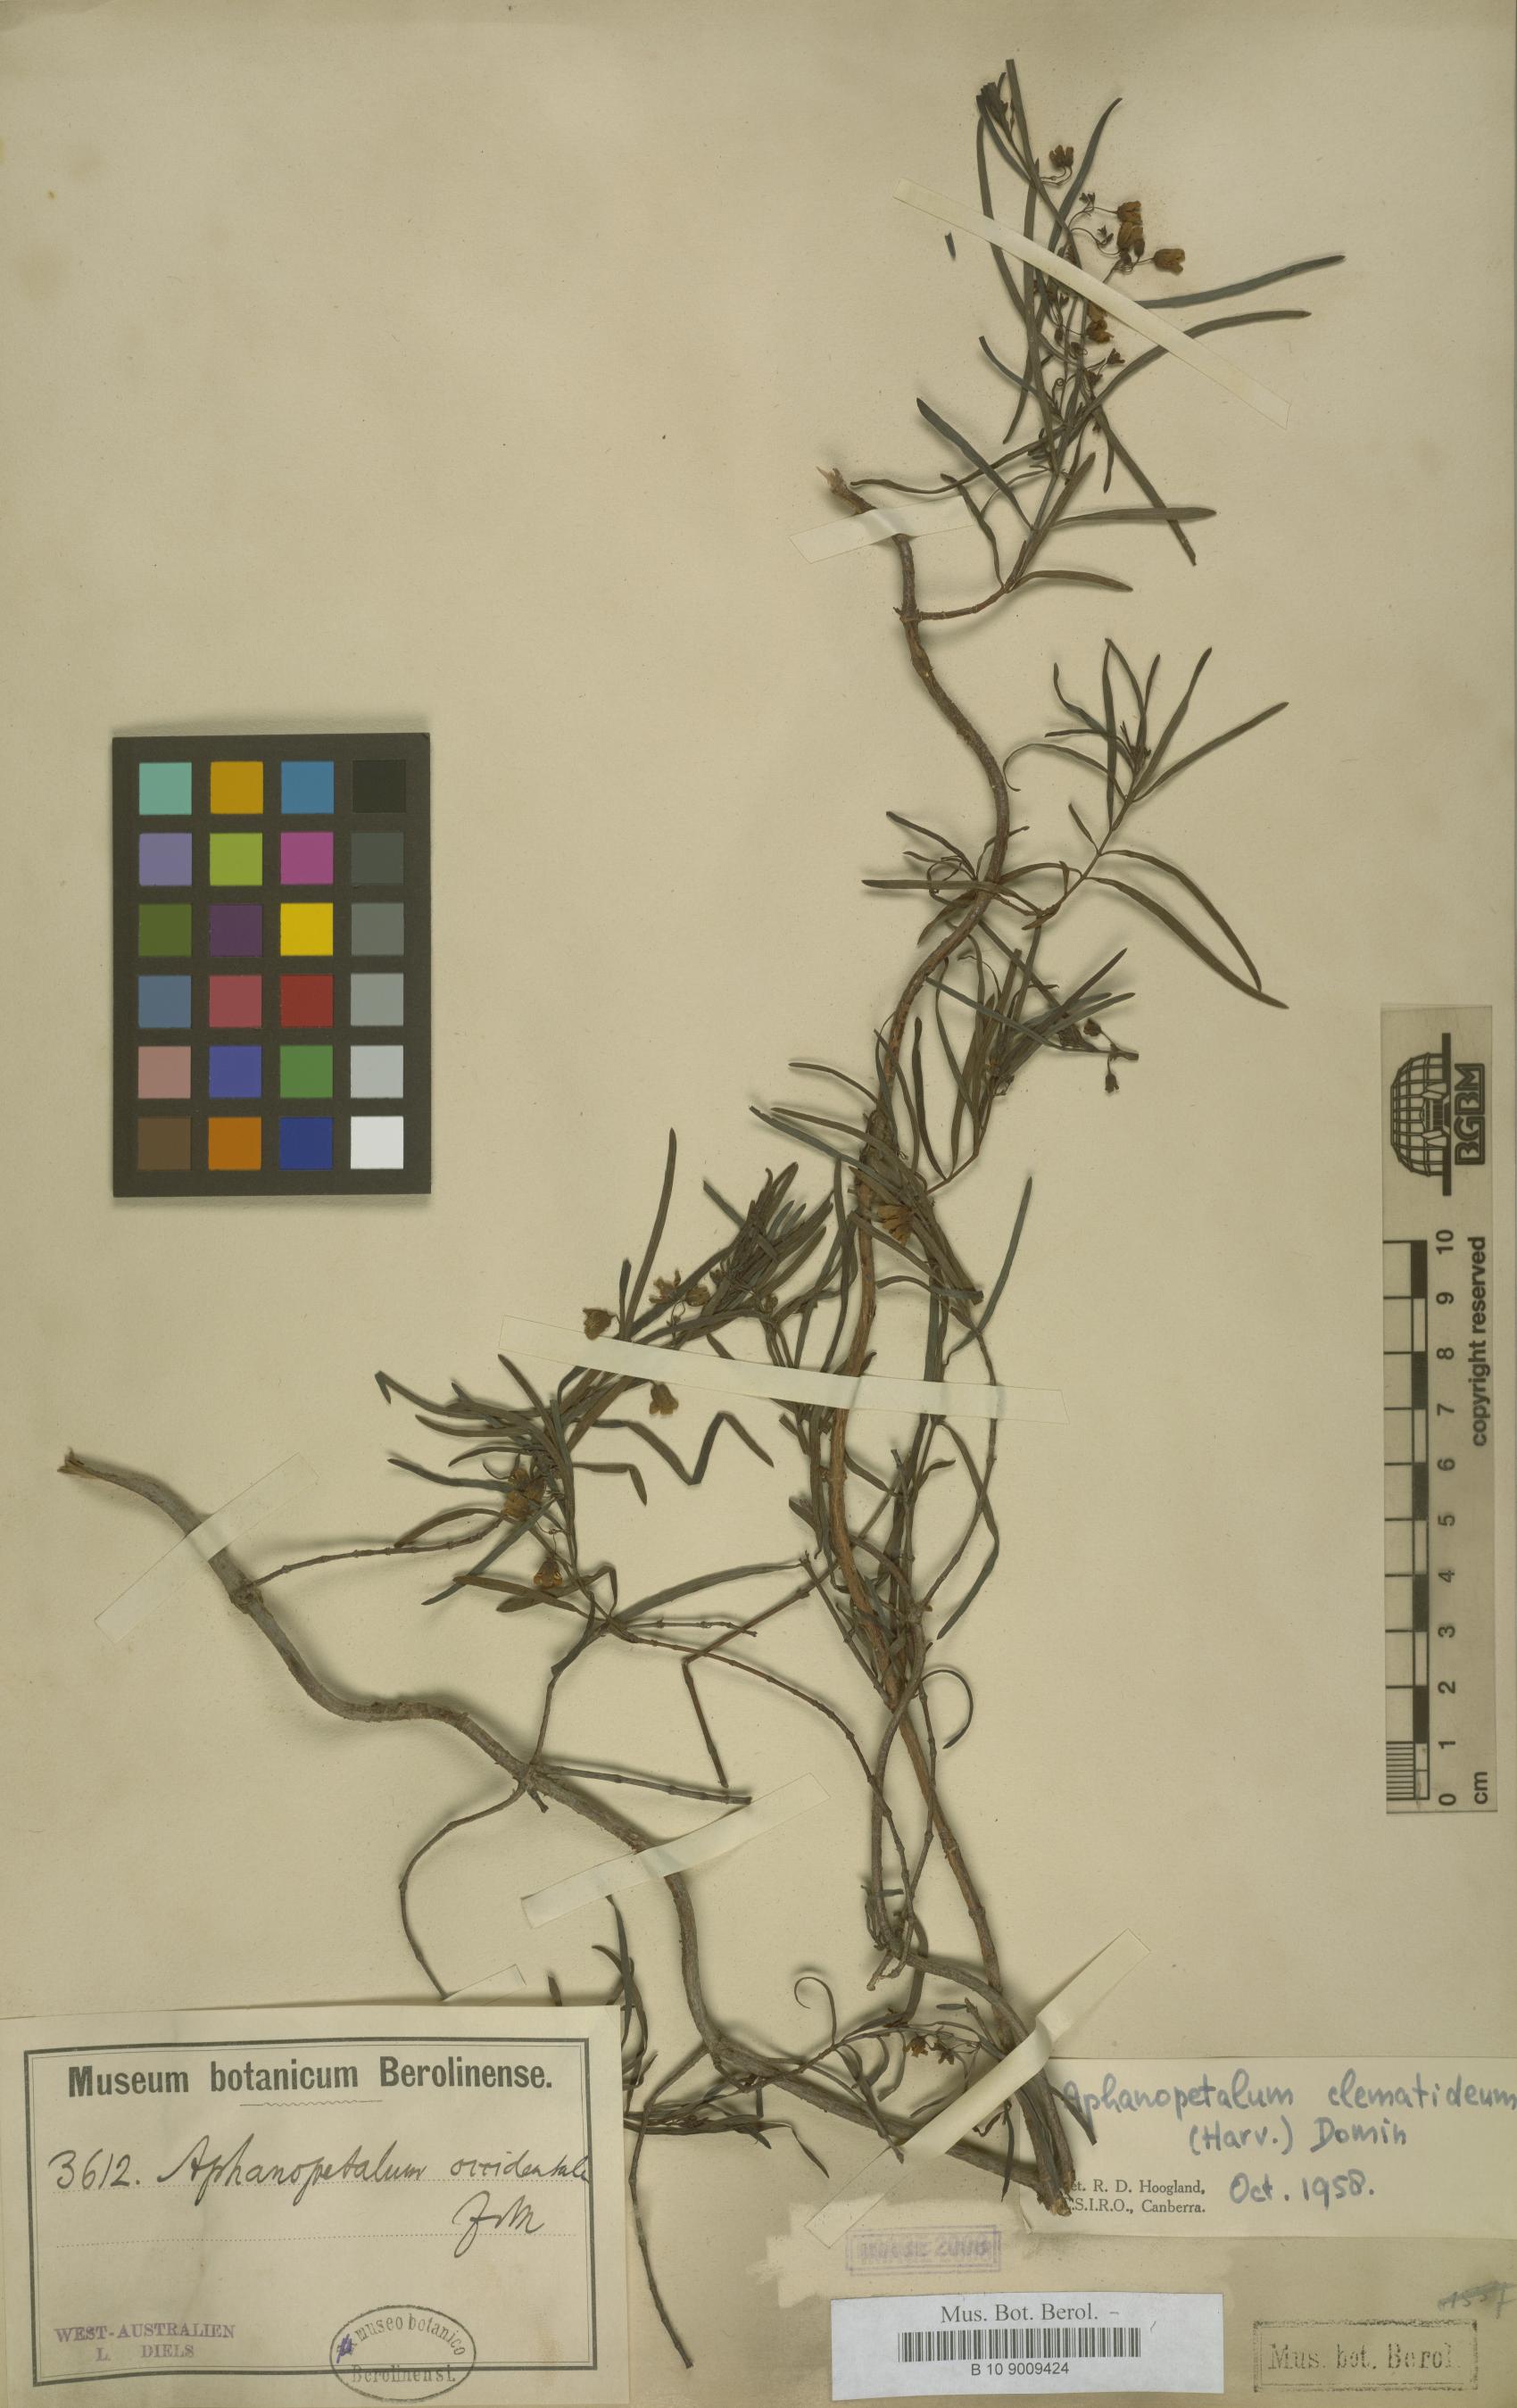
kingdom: Plantae
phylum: Tracheophyta
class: Magnoliopsida
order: Saxifragales
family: Aphanopetalaceae
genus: Aphanopetalum
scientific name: Aphanopetalum clematideum
